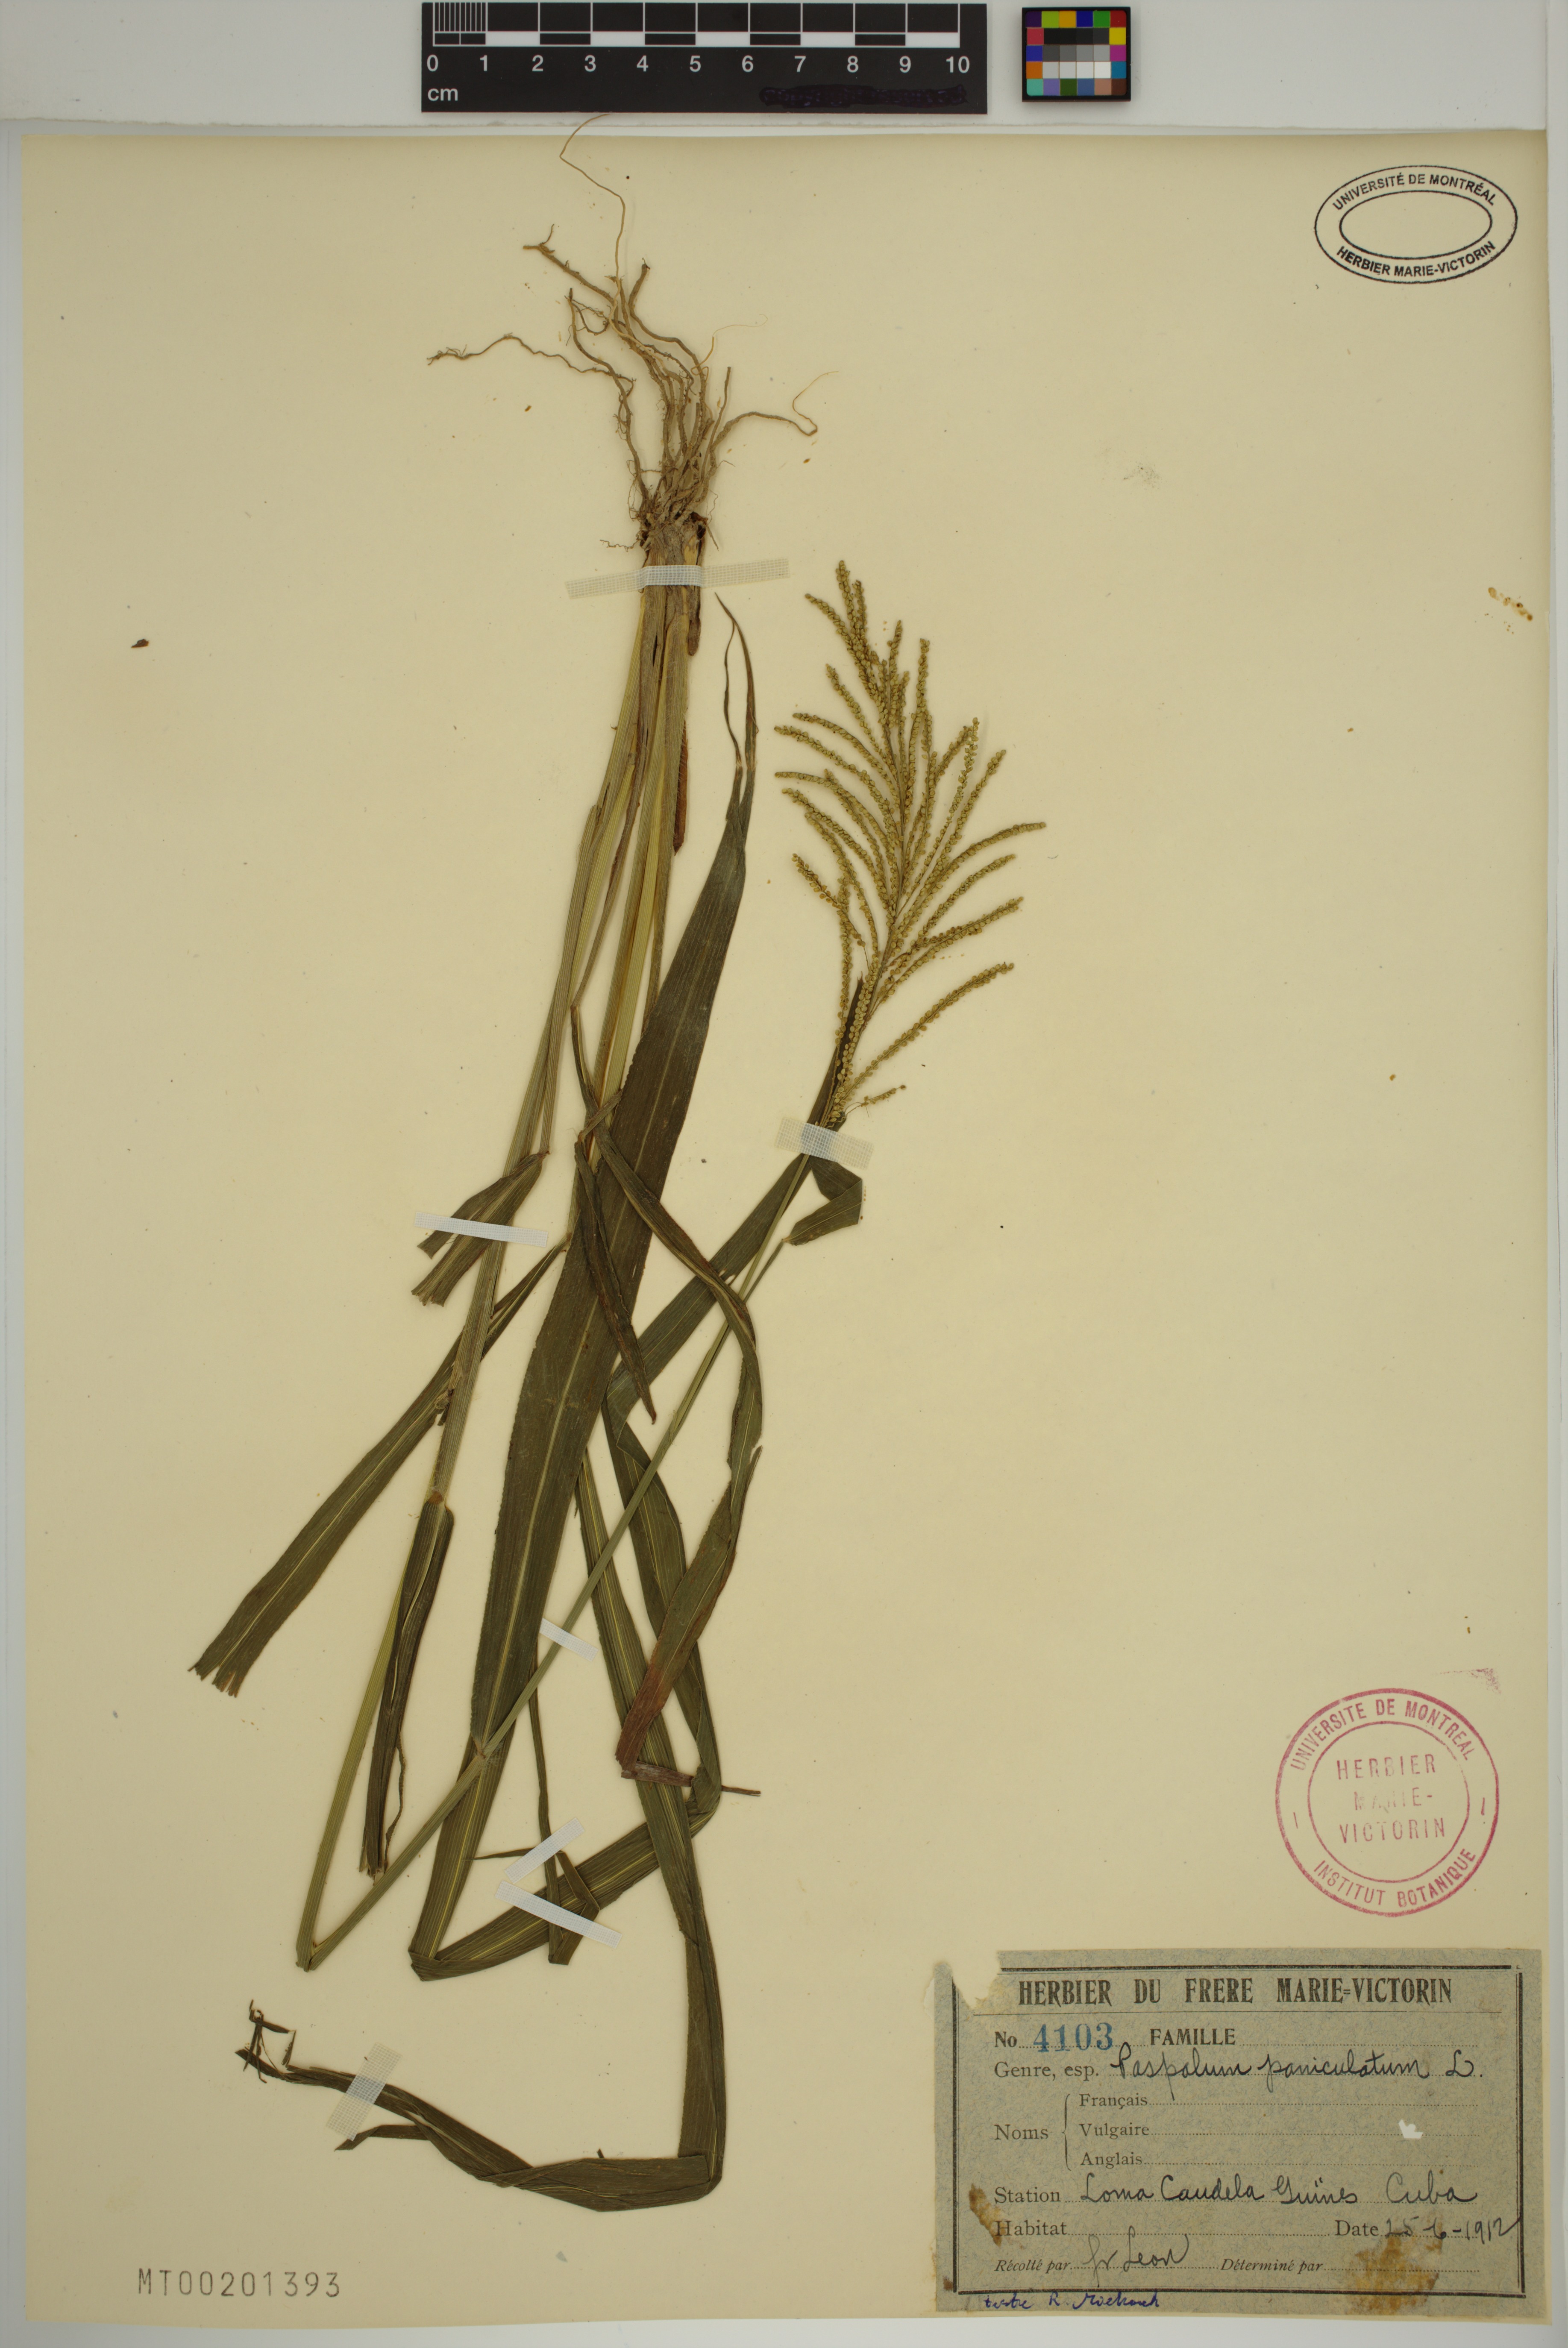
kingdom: Plantae
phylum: Tracheophyta
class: Liliopsida
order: Poales
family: Poaceae
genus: Paspalum
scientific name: Paspalum paniculatum
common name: Arrocillo
